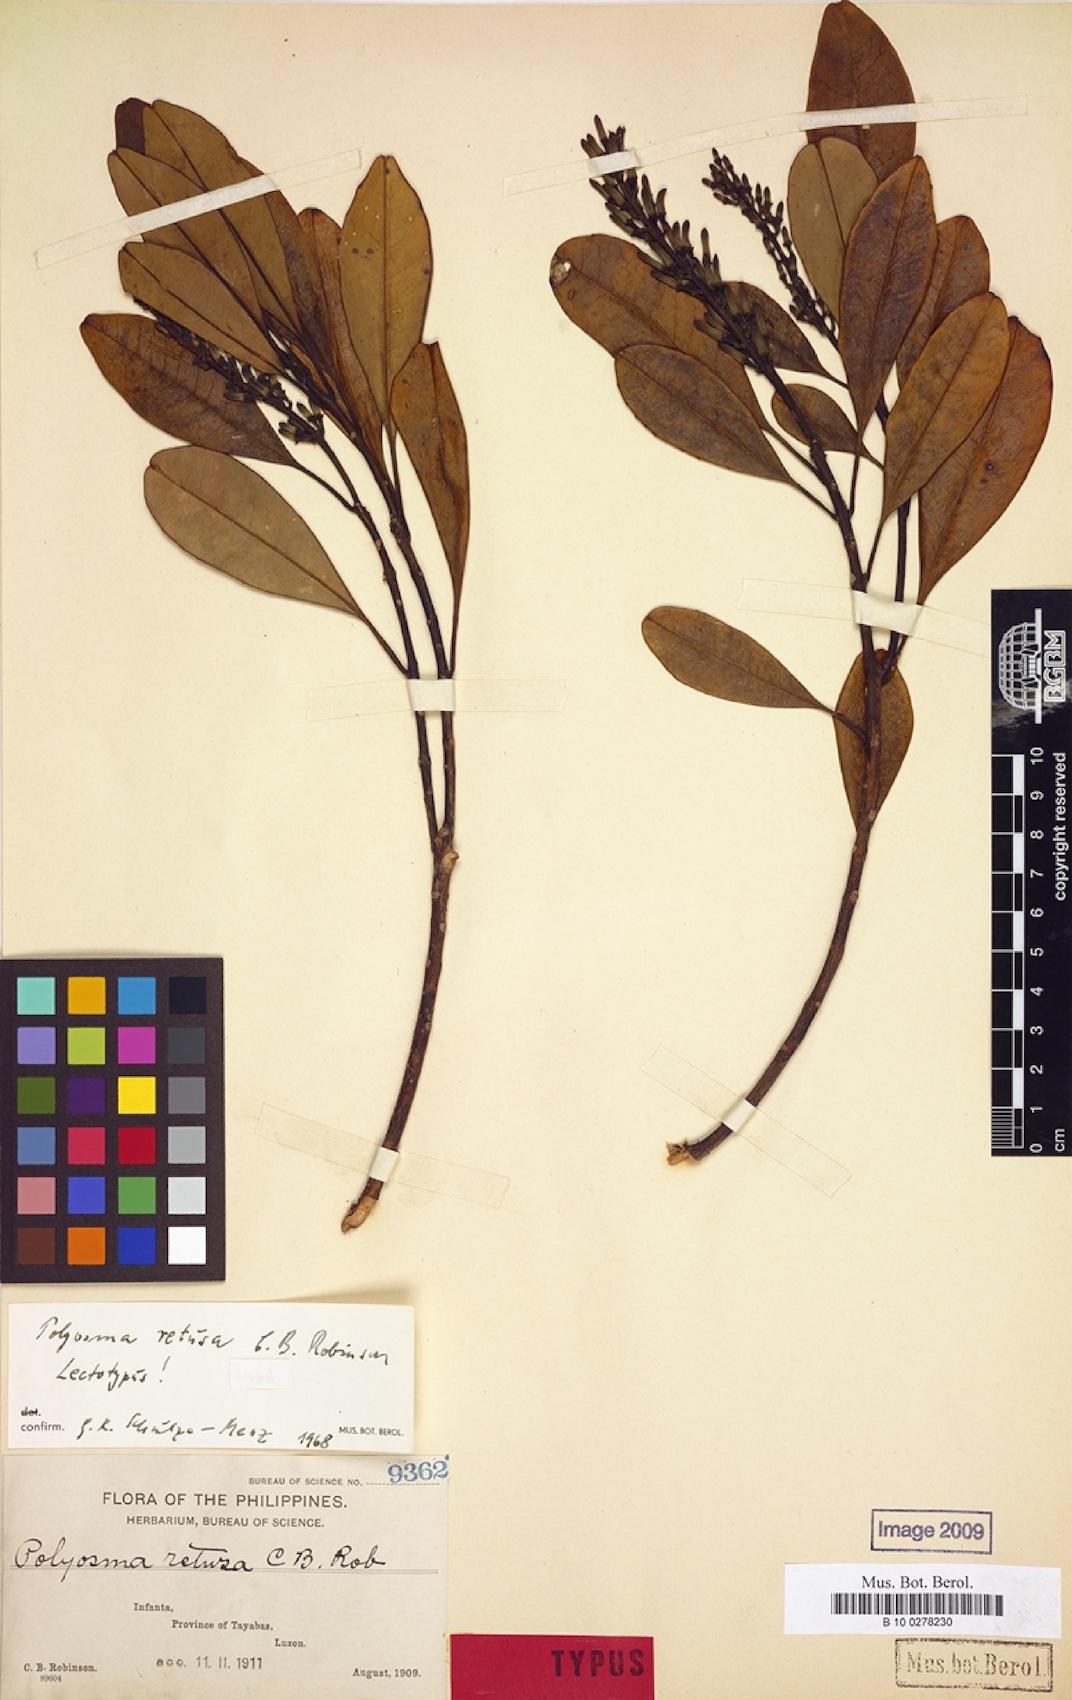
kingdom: Plantae
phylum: Tracheophyta
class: Magnoliopsida
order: Escalloniales
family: Escalloniaceae
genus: Polyosma
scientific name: Polyosma retusa
